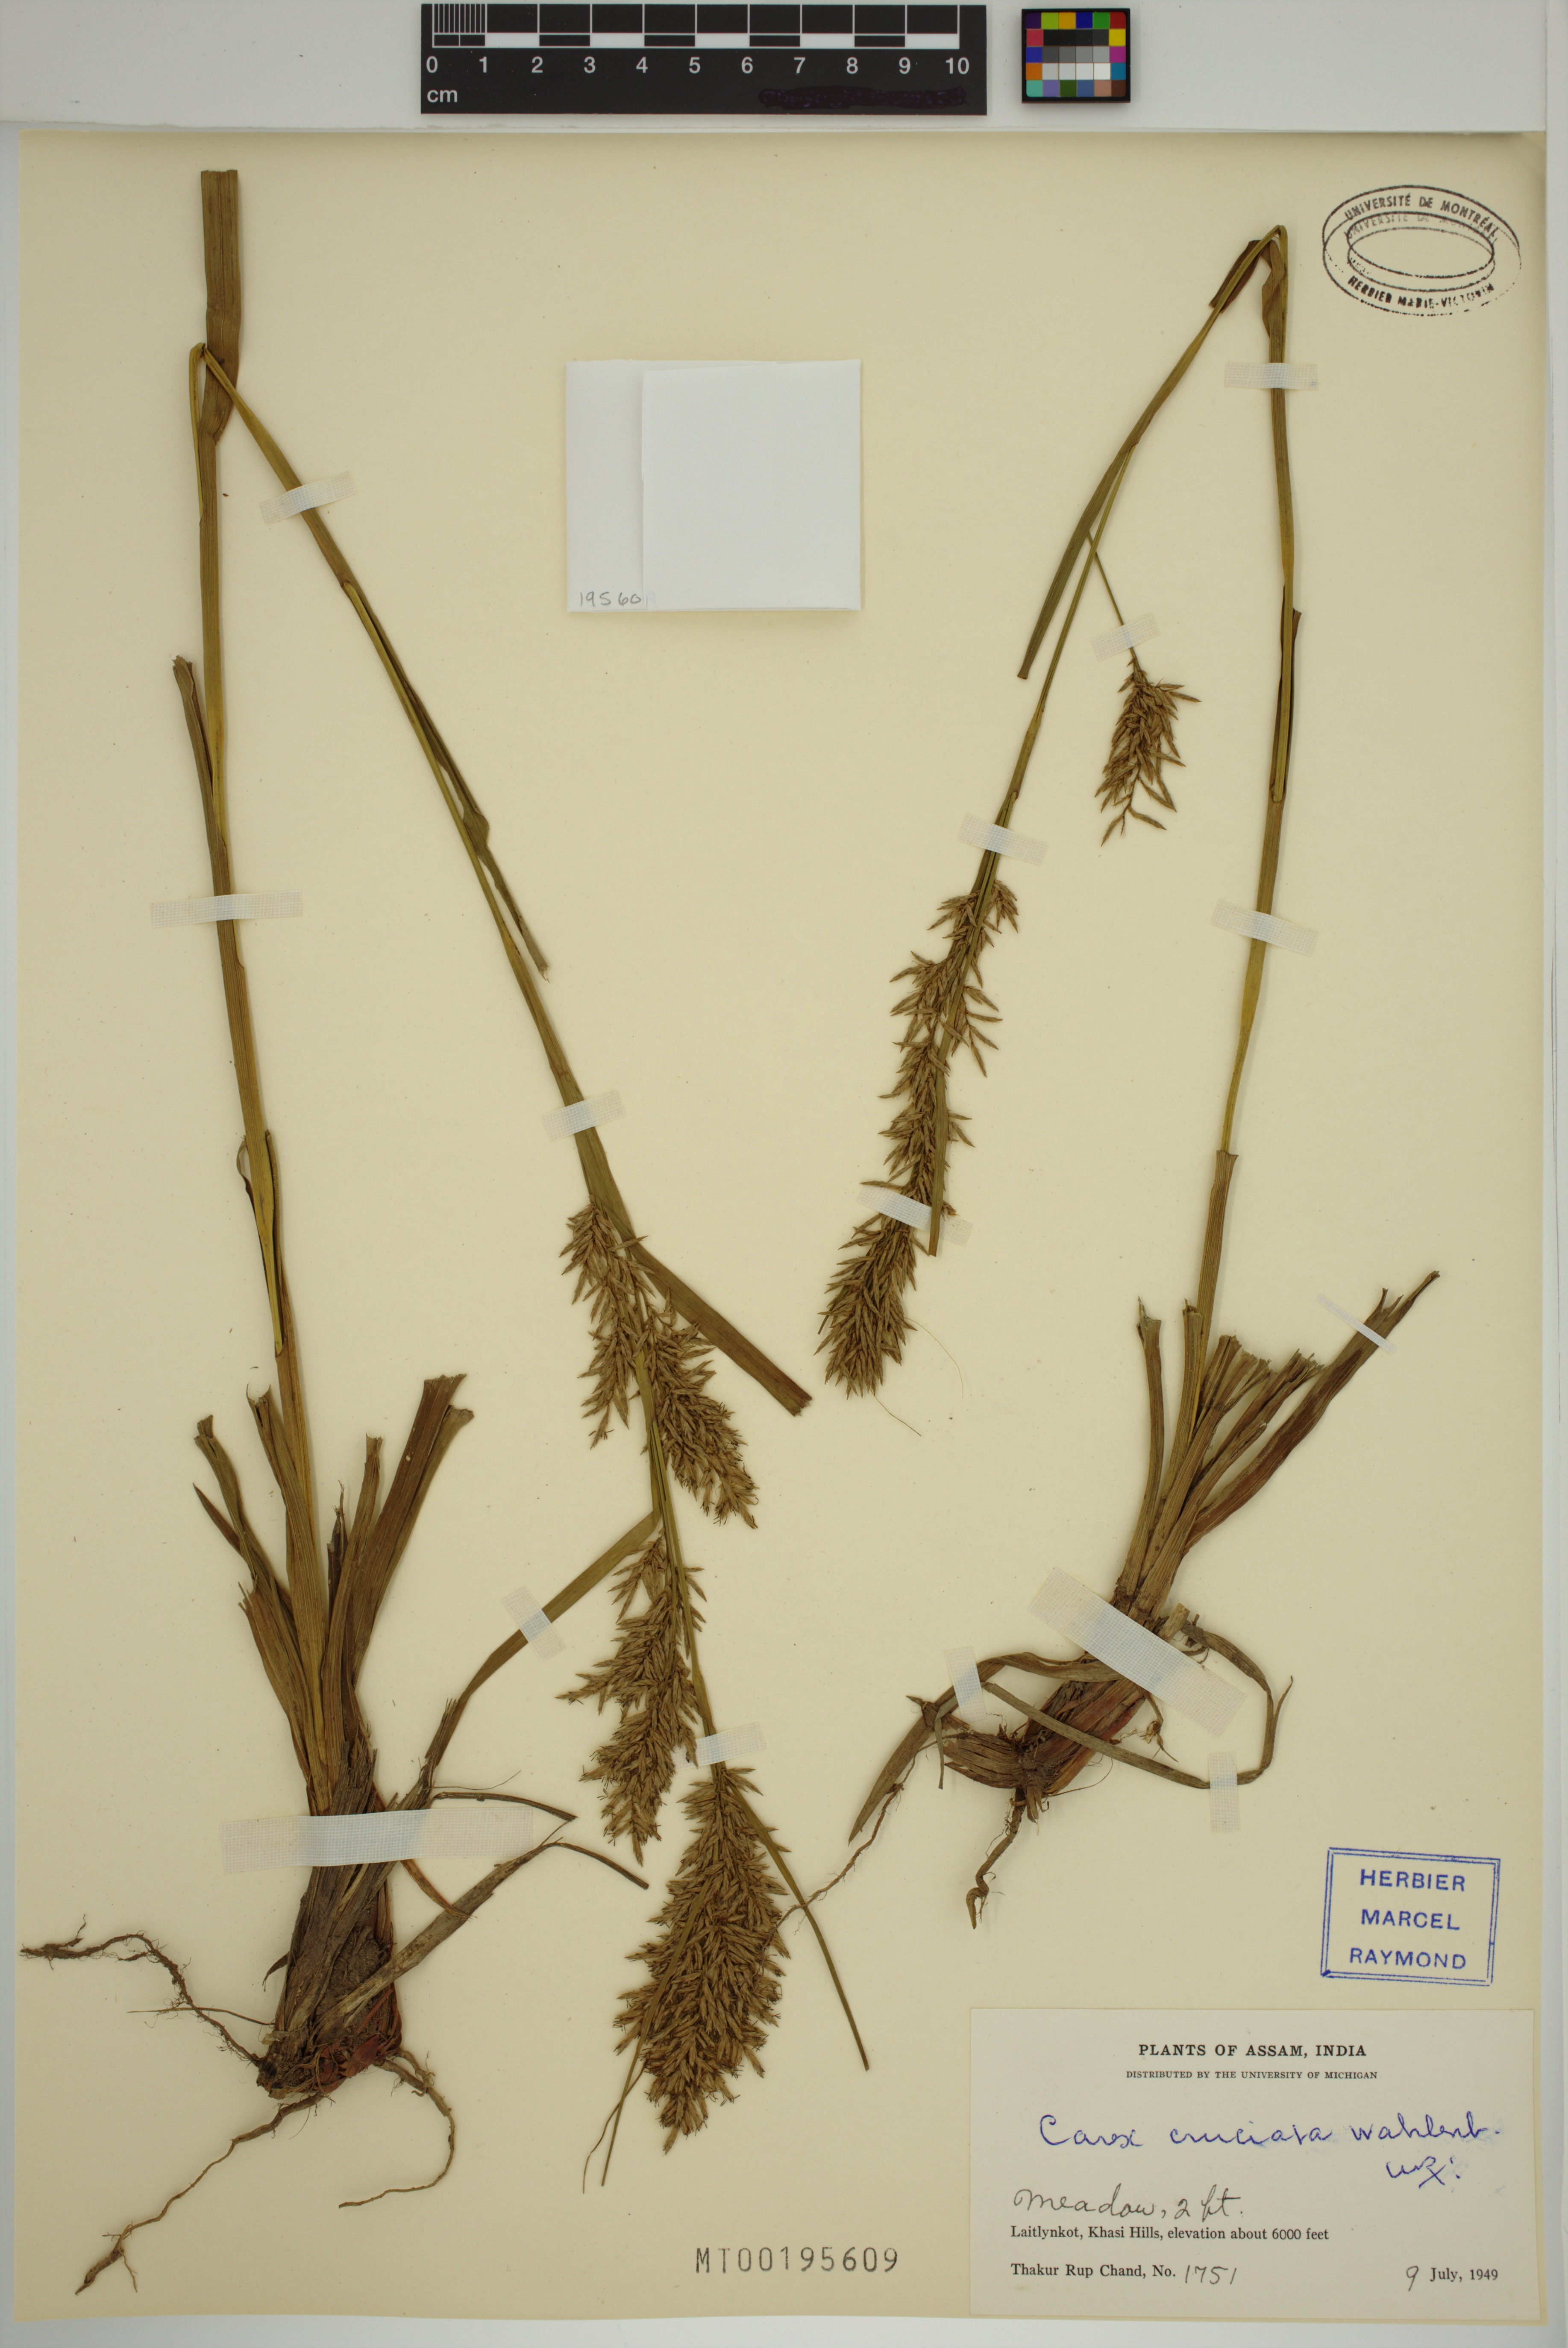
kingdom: Plantae
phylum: Tracheophyta
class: Liliopsida
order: Poales
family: Cyperaceae
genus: Carex
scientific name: Carex cruciata
